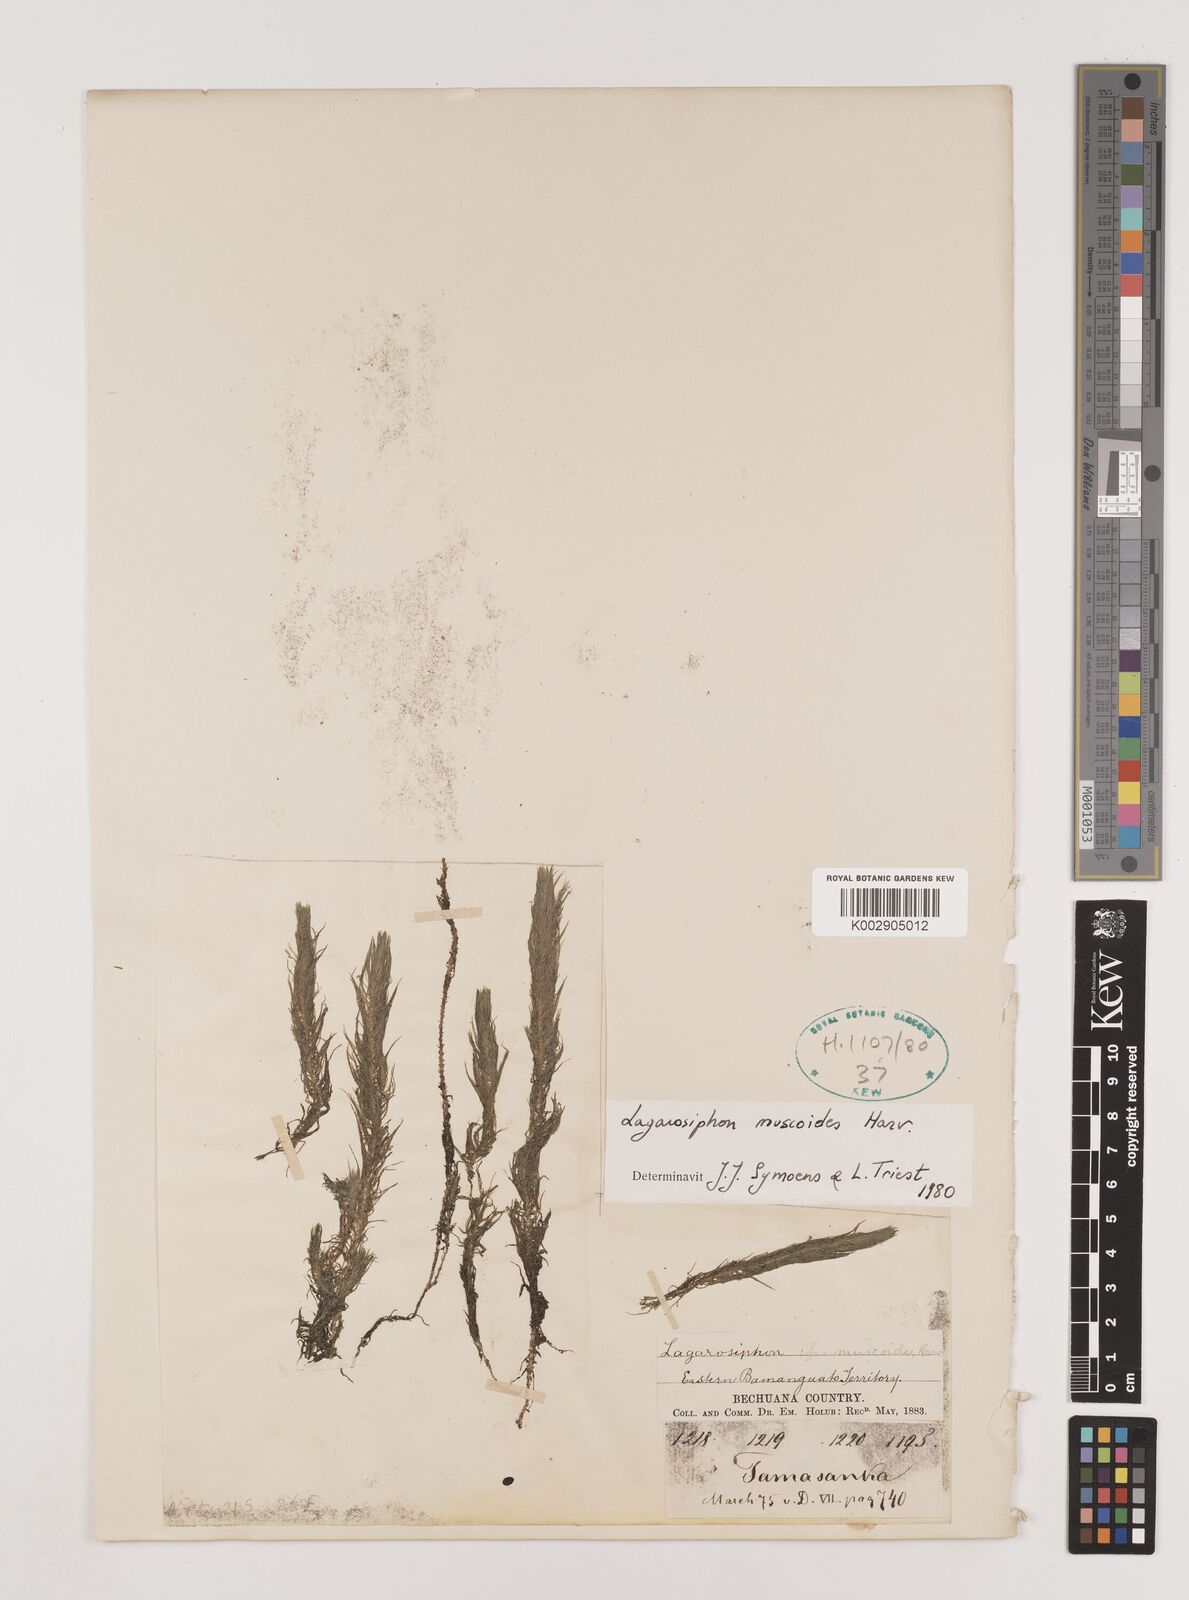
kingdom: Plantae
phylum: Tracheophyta
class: Liliopsida
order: Alismatales
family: Hydrocharitaceae
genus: Lagarosiphon
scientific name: Lagarosiphon muscoides
